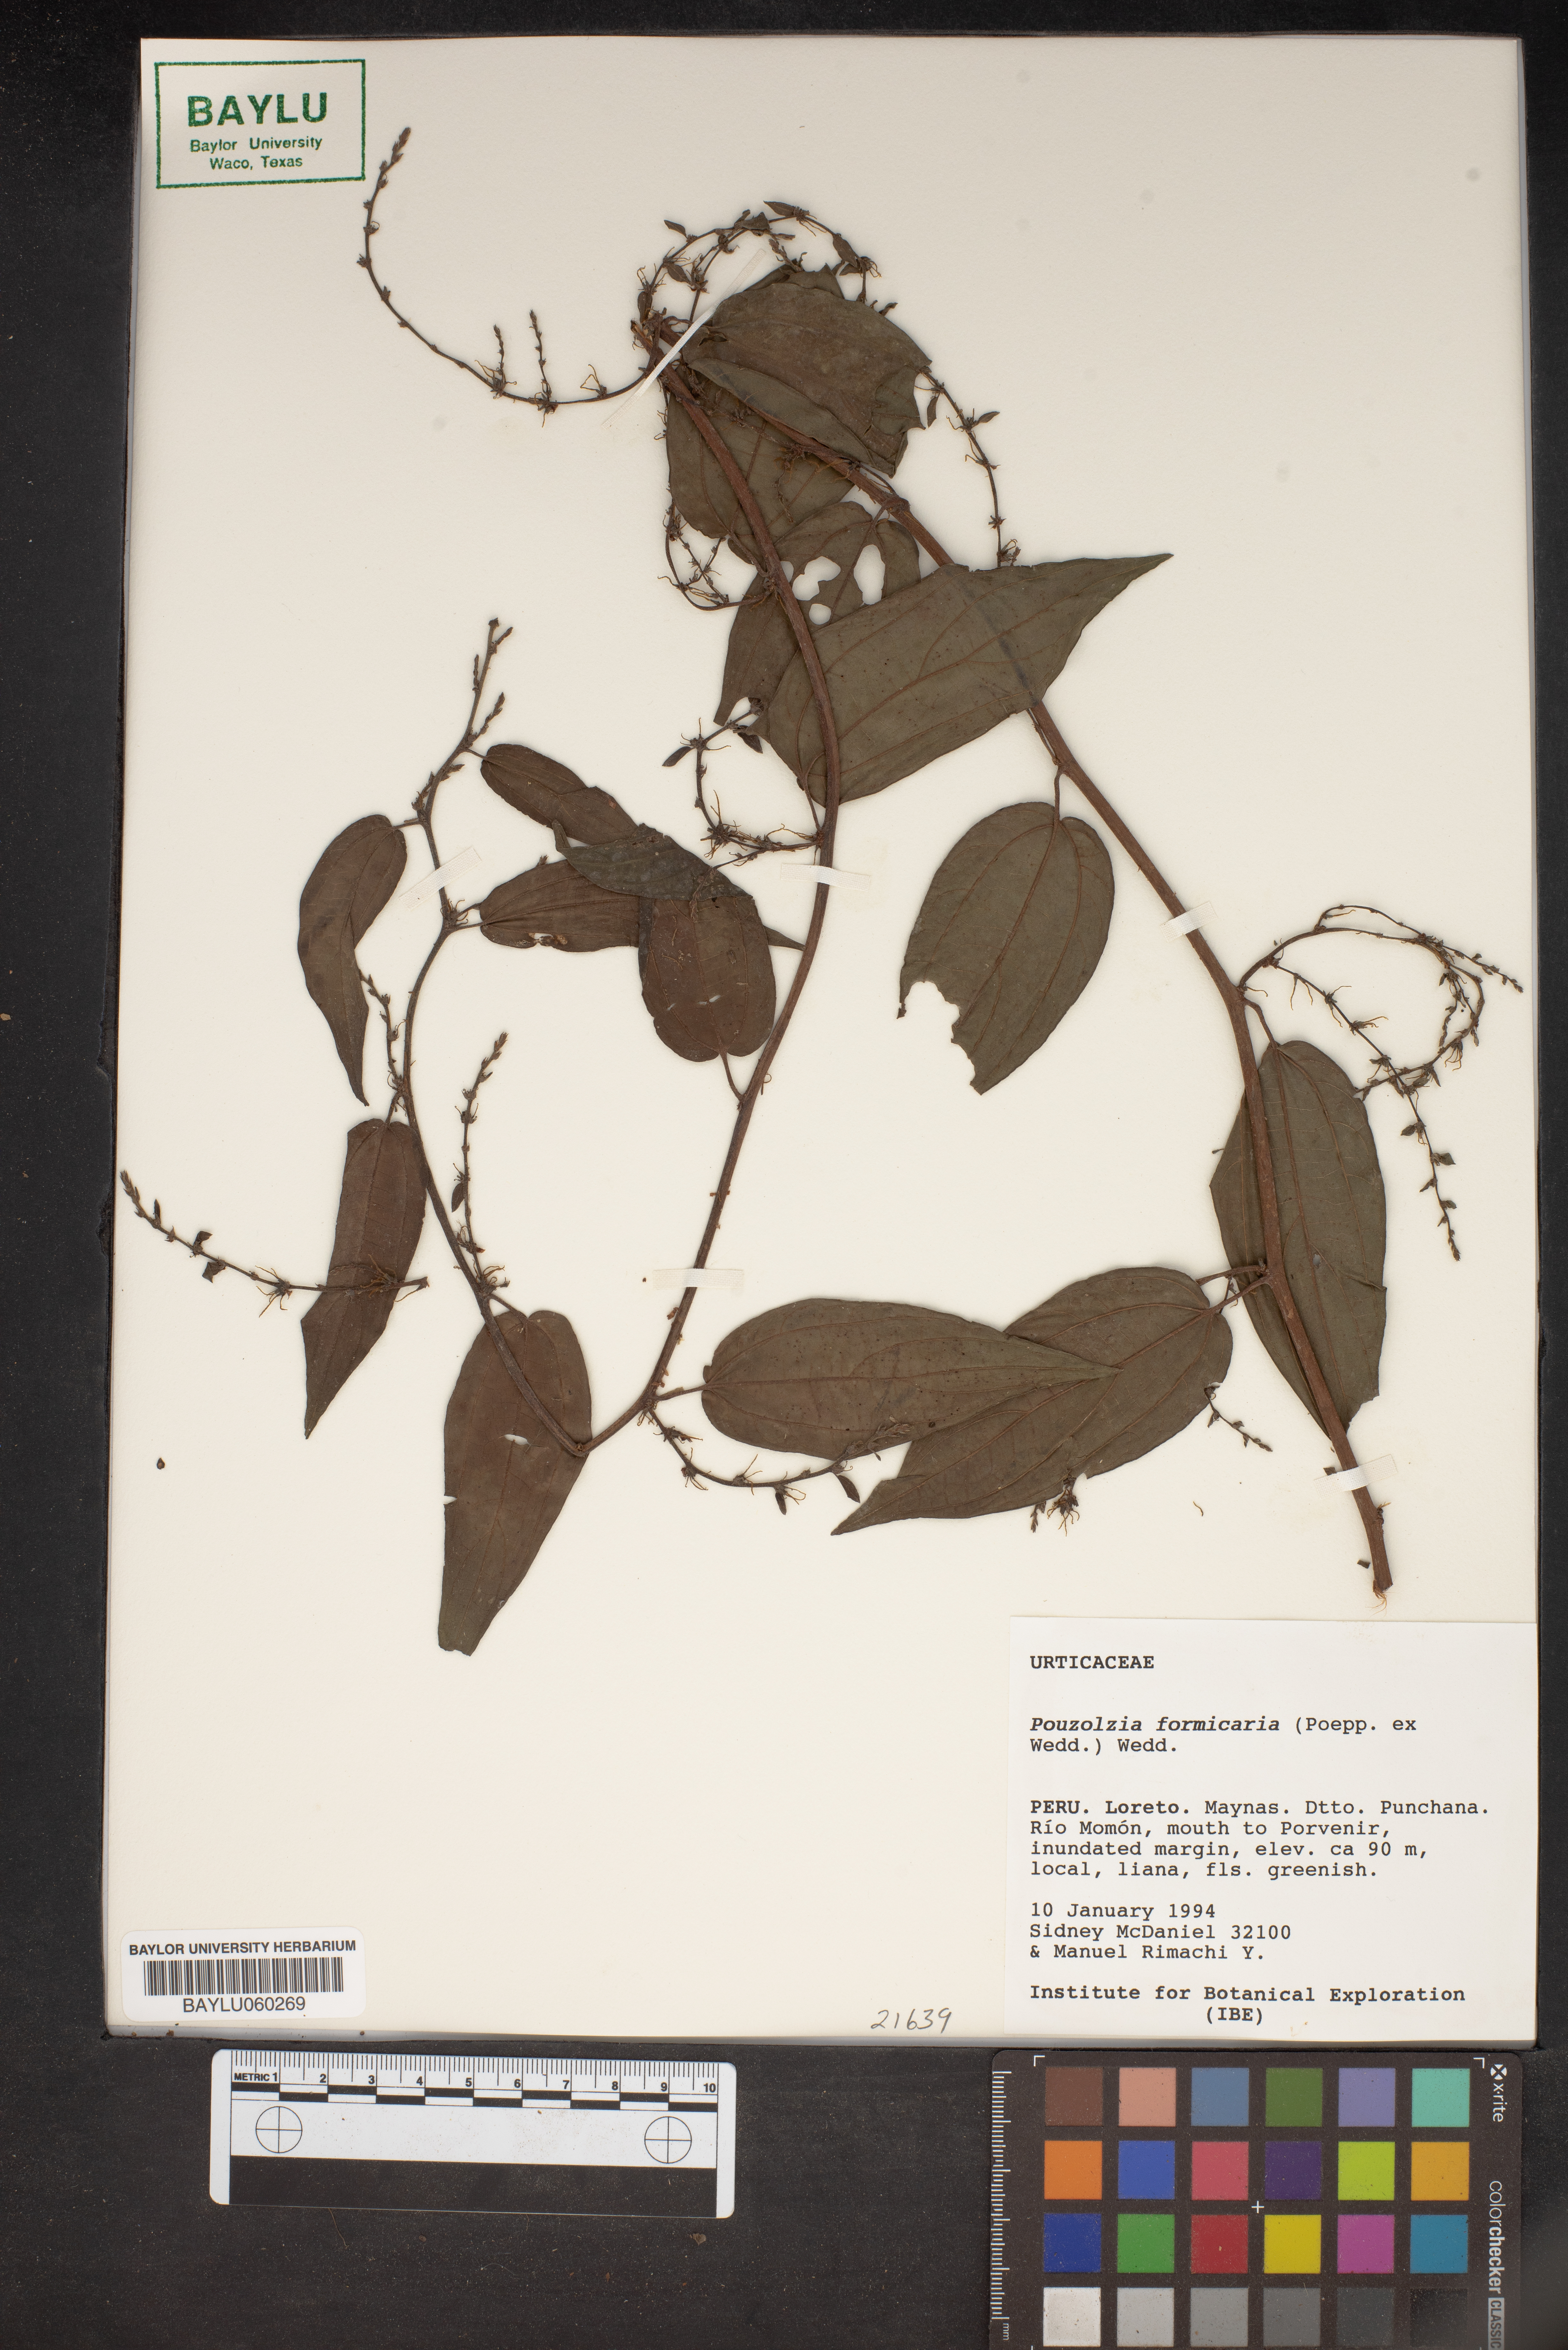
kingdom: Plantae
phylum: Tracheophyta
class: Magnoliopsida
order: Rosales
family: Urticaceae
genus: Pouzolzia
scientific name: Pouzolzia formicaria
